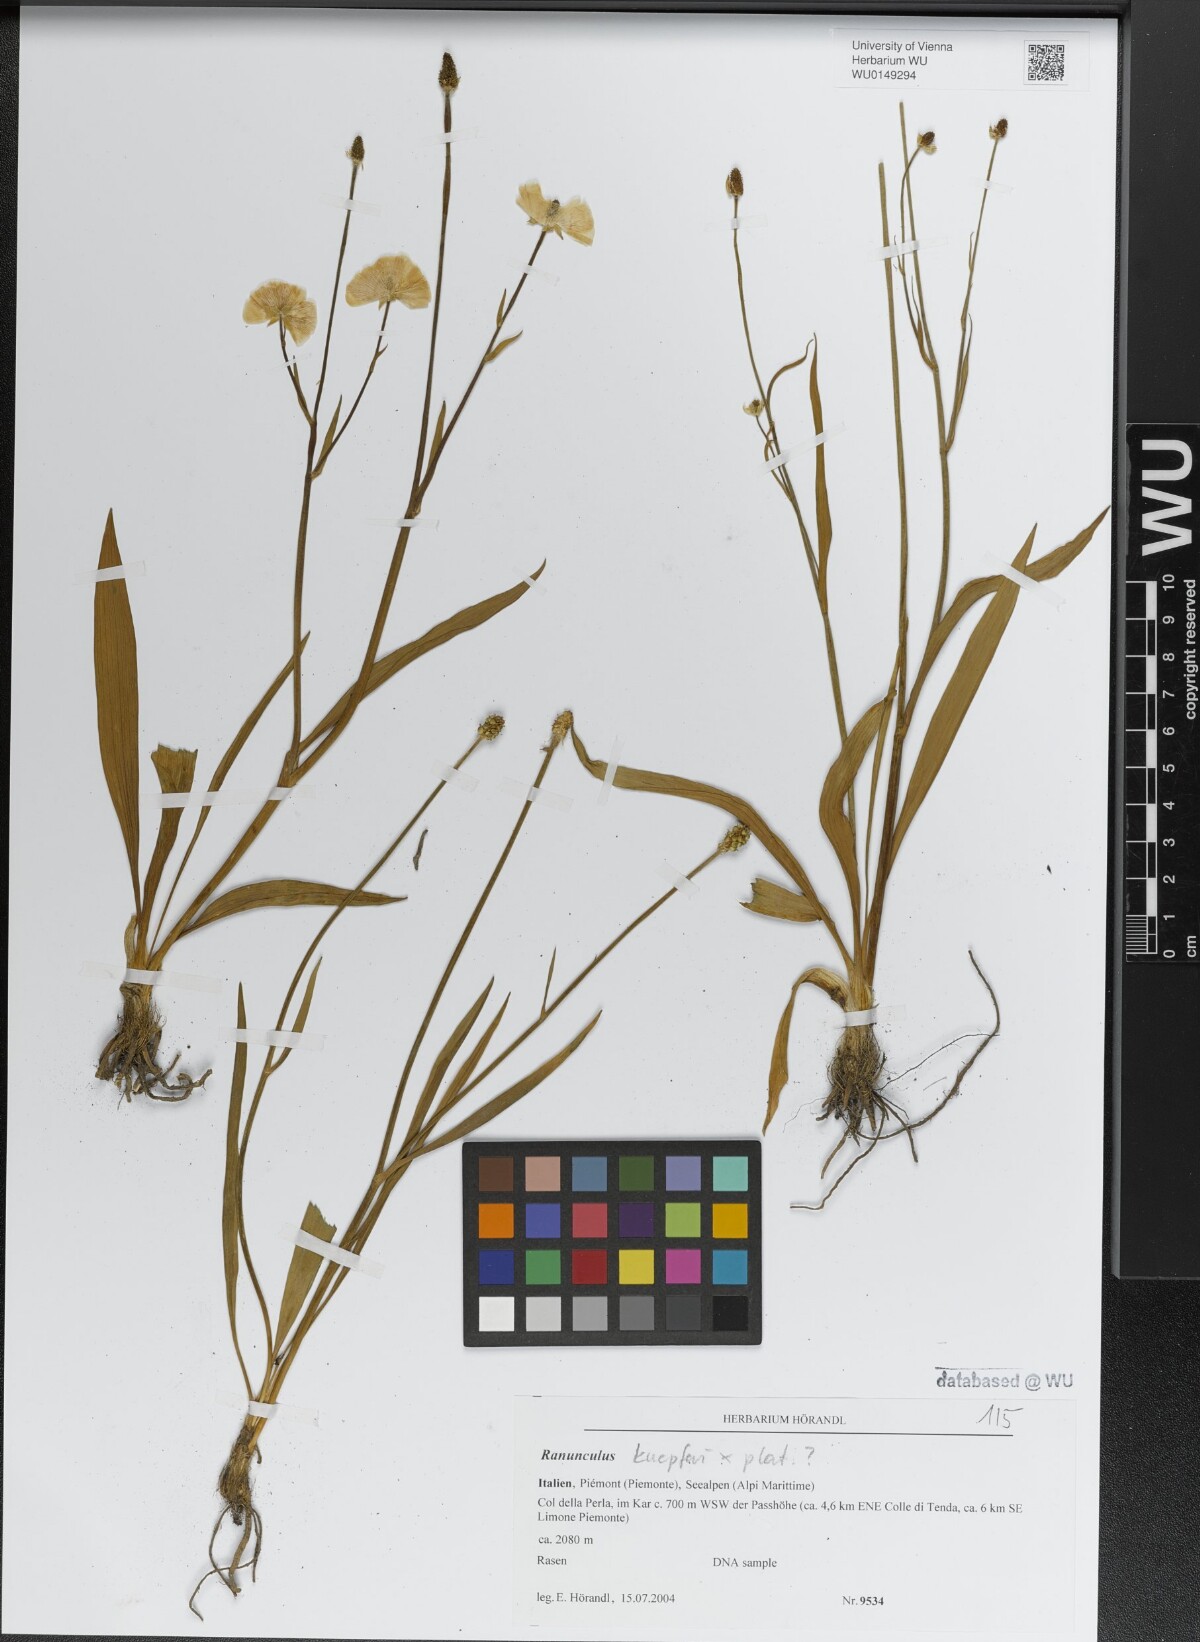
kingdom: Plantae
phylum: Tracheophyta
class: Magnoliopsida
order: Ranunculales
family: Ranunculaceae
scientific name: Ranunculaceae
